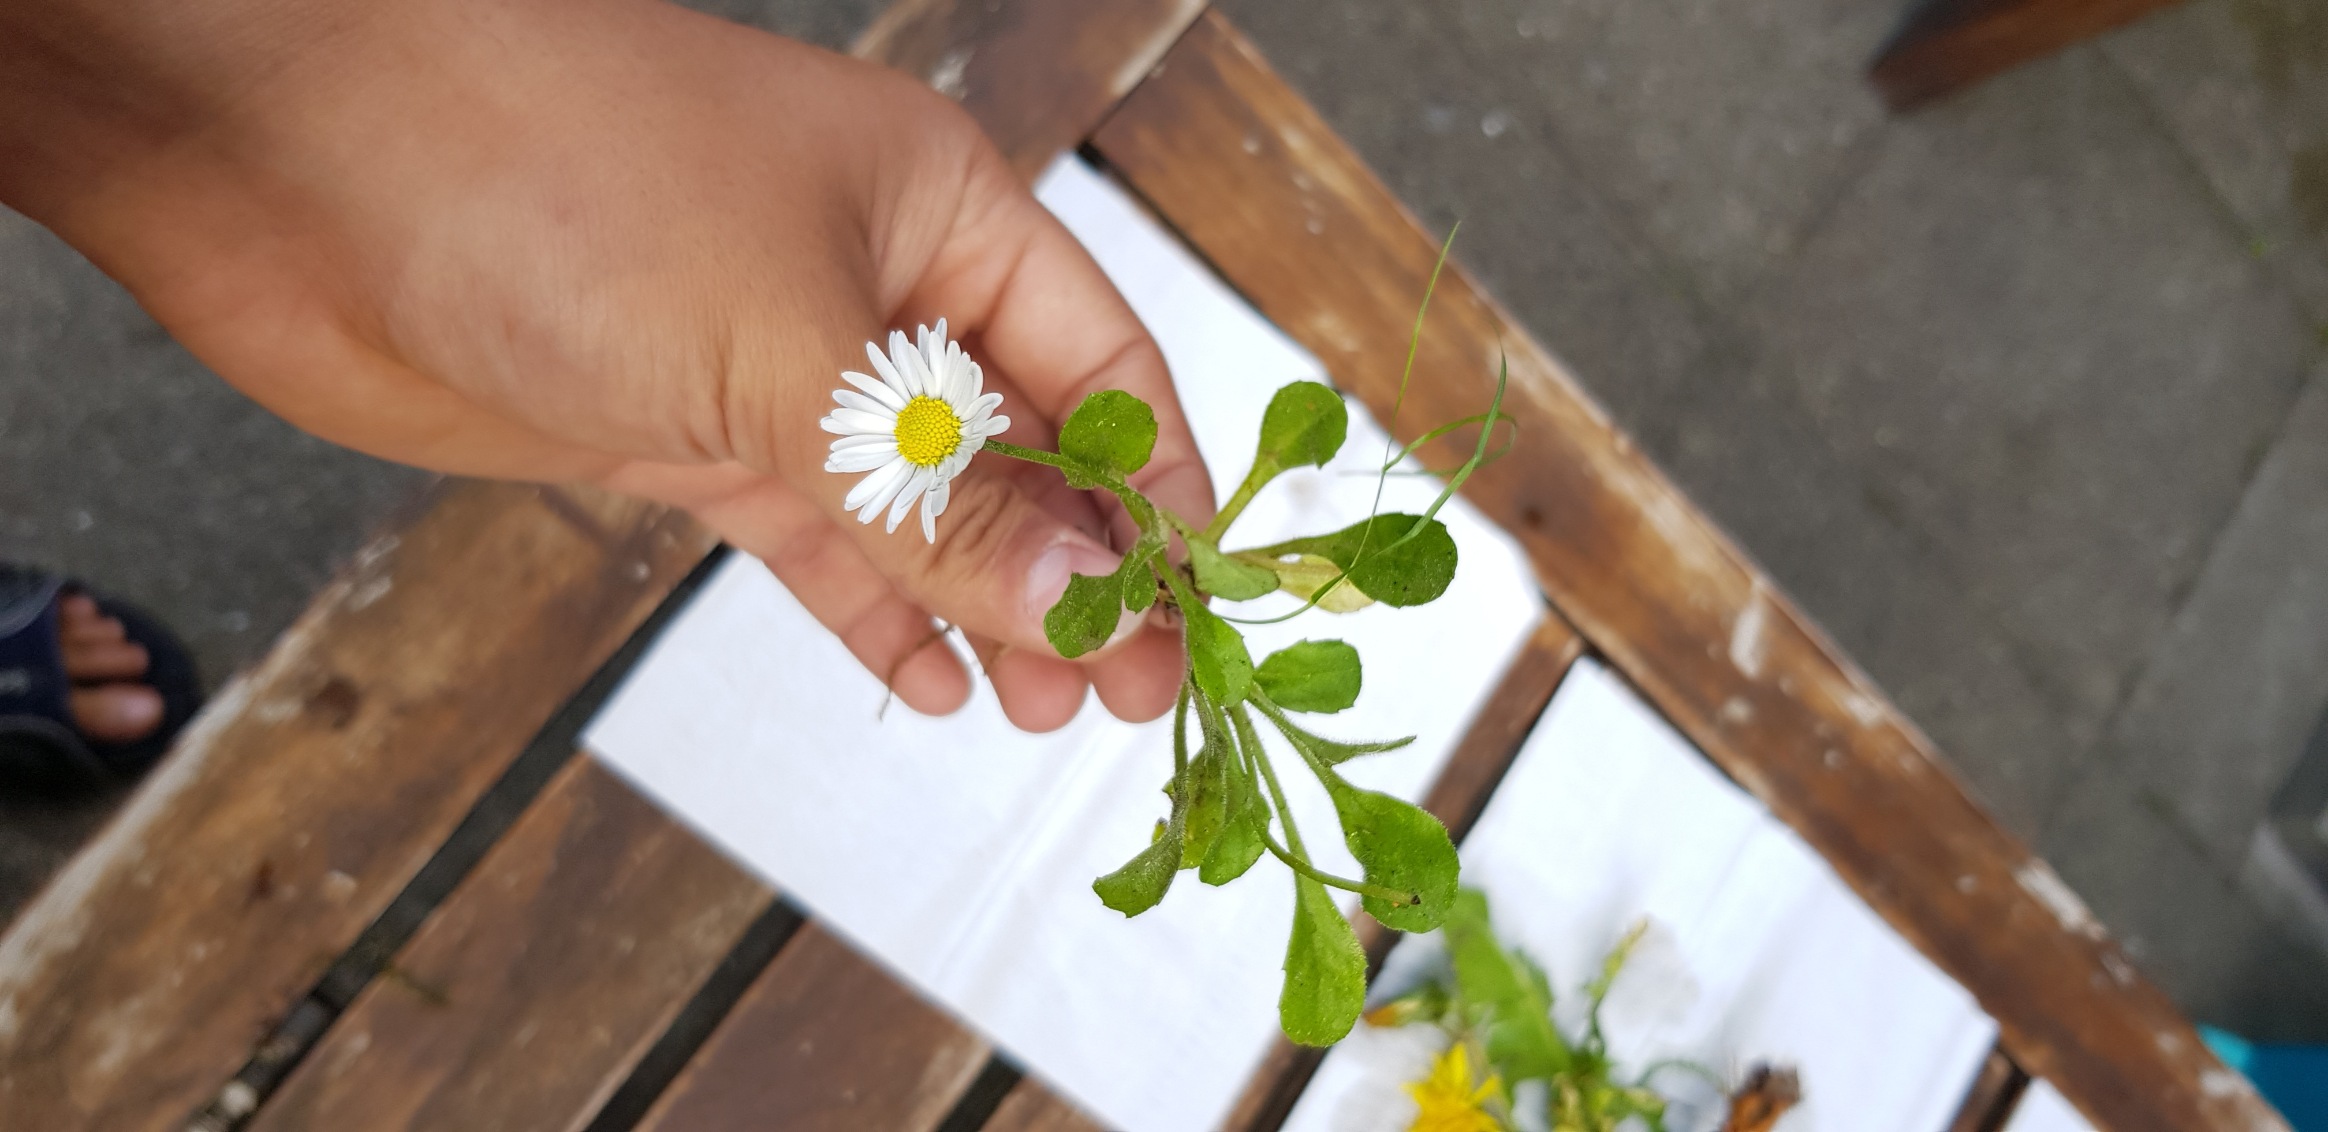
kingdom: Plantae
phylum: Tracheophyta
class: Magnoliopsida
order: Asterales
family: Asteraceae
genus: Bellis
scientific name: Bellis perennis
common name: Tusindfryd
